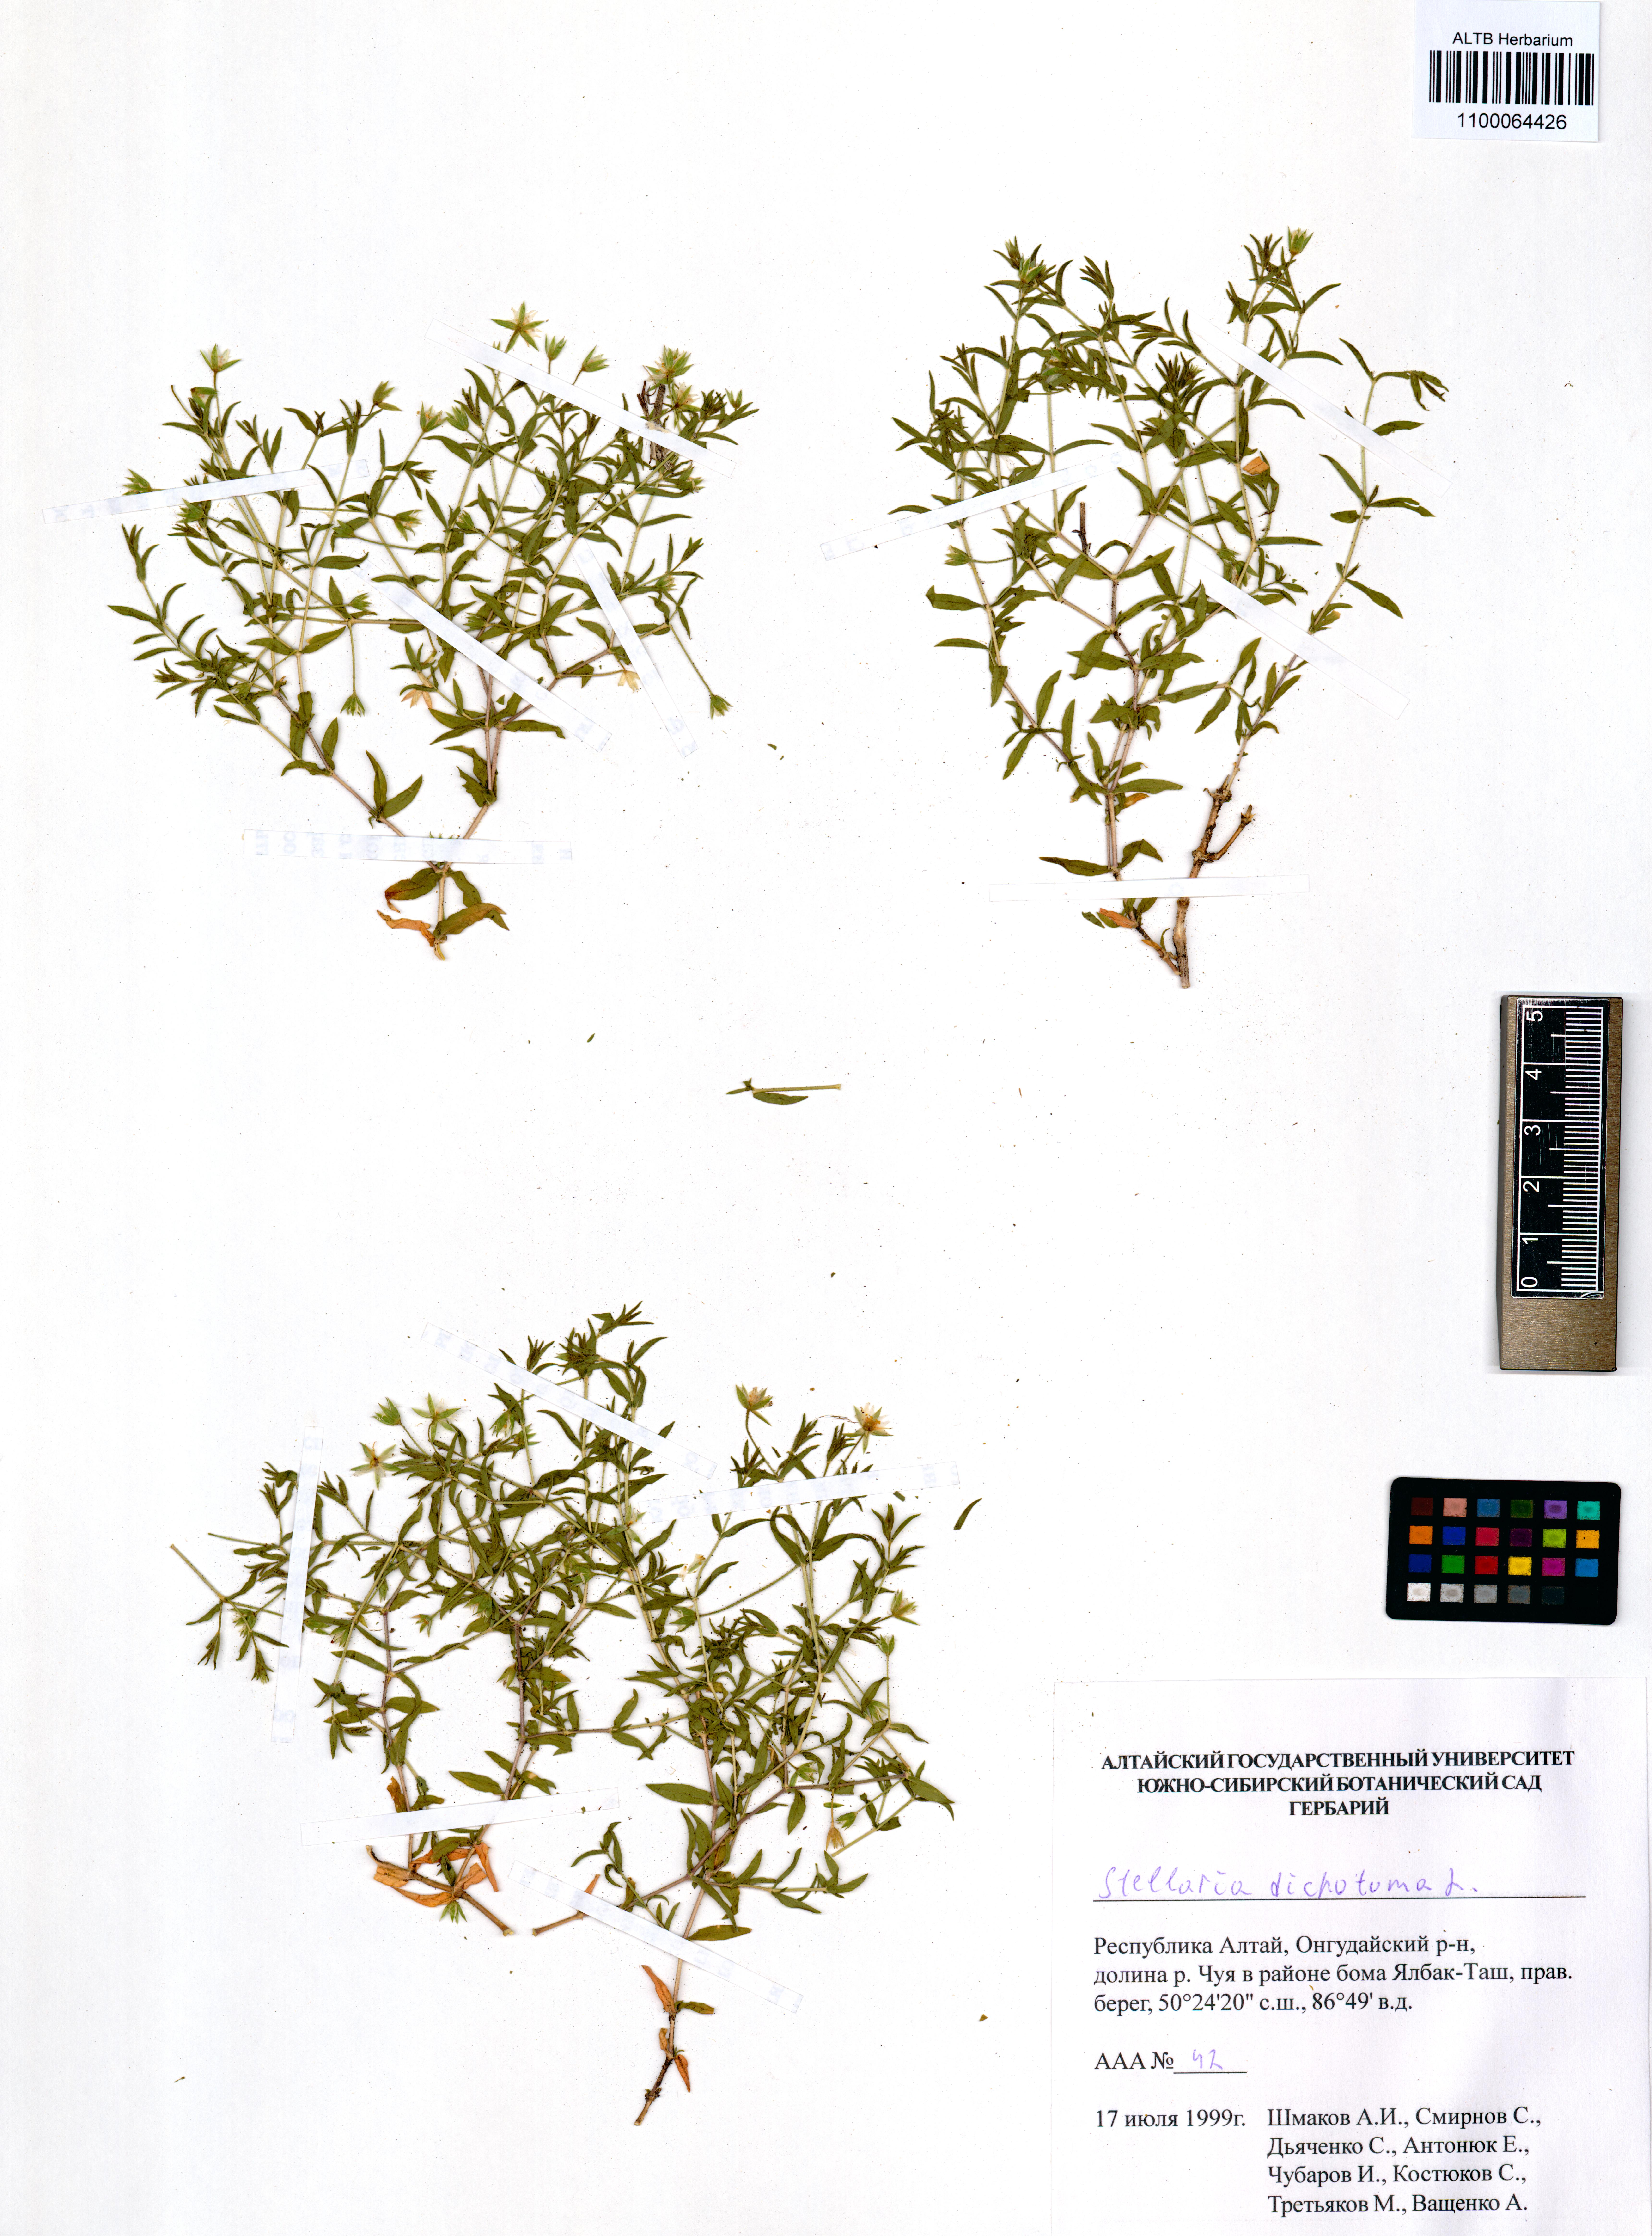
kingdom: Plantae
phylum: Tracheophyta
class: Magnoliopsida
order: Caryophyllales
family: Caryophyllaceae
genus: Mesostemma
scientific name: Mesostemma dichotomum
